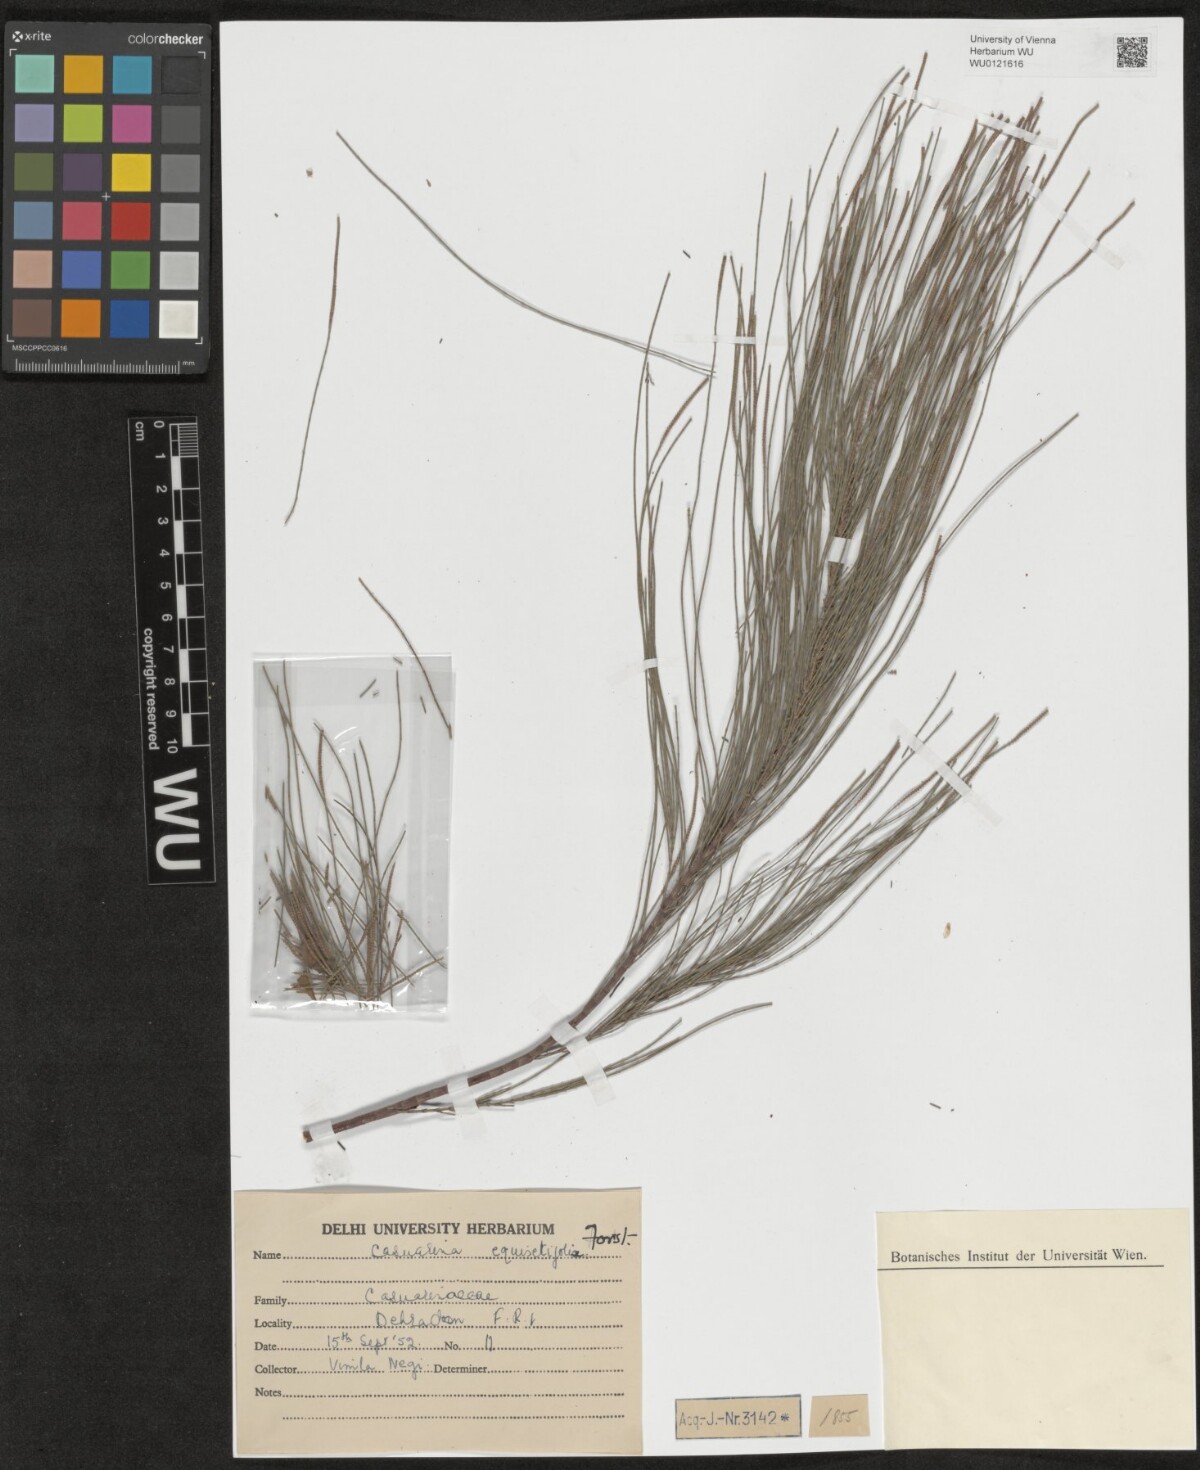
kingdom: Plantae
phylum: Tracheophyta
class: Magnoliopsida
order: Fagales
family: Casuarinaceae
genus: Casuarina
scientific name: Casuarina equisetifolia
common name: Beach sheoak
